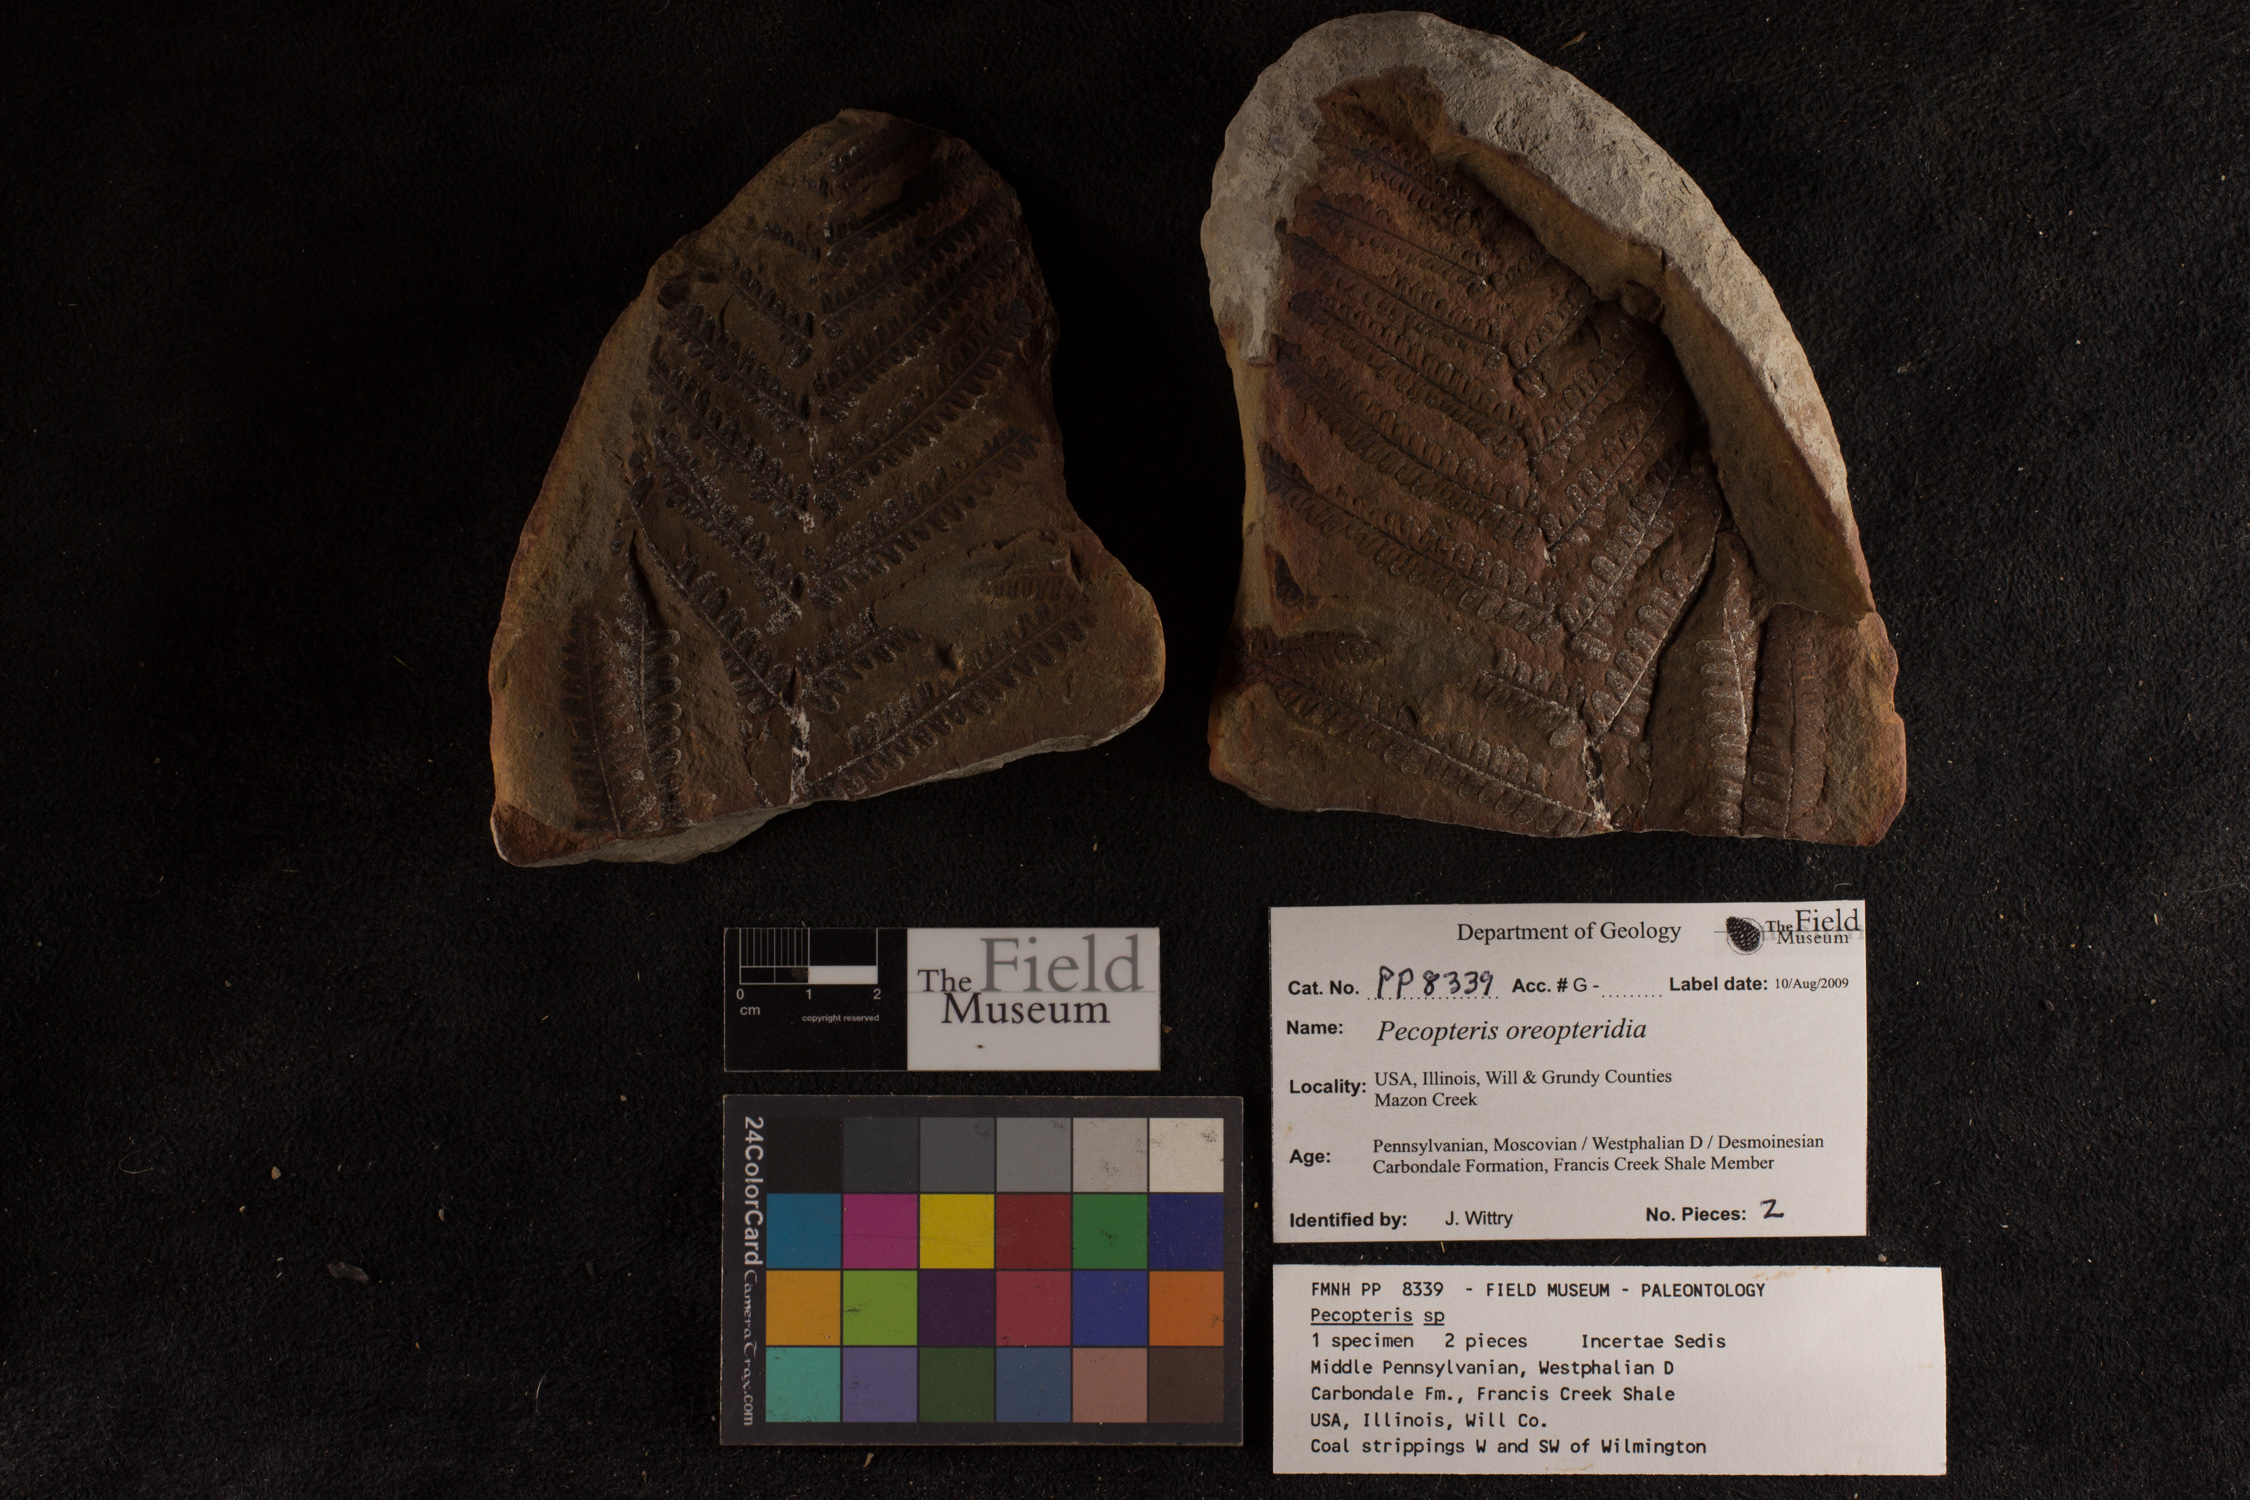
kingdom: Plantae
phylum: Tracheophyta
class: Polypodiopsida
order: Marattiales
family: Asterothecaceae
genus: Pecopteris
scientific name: Pecopteris
